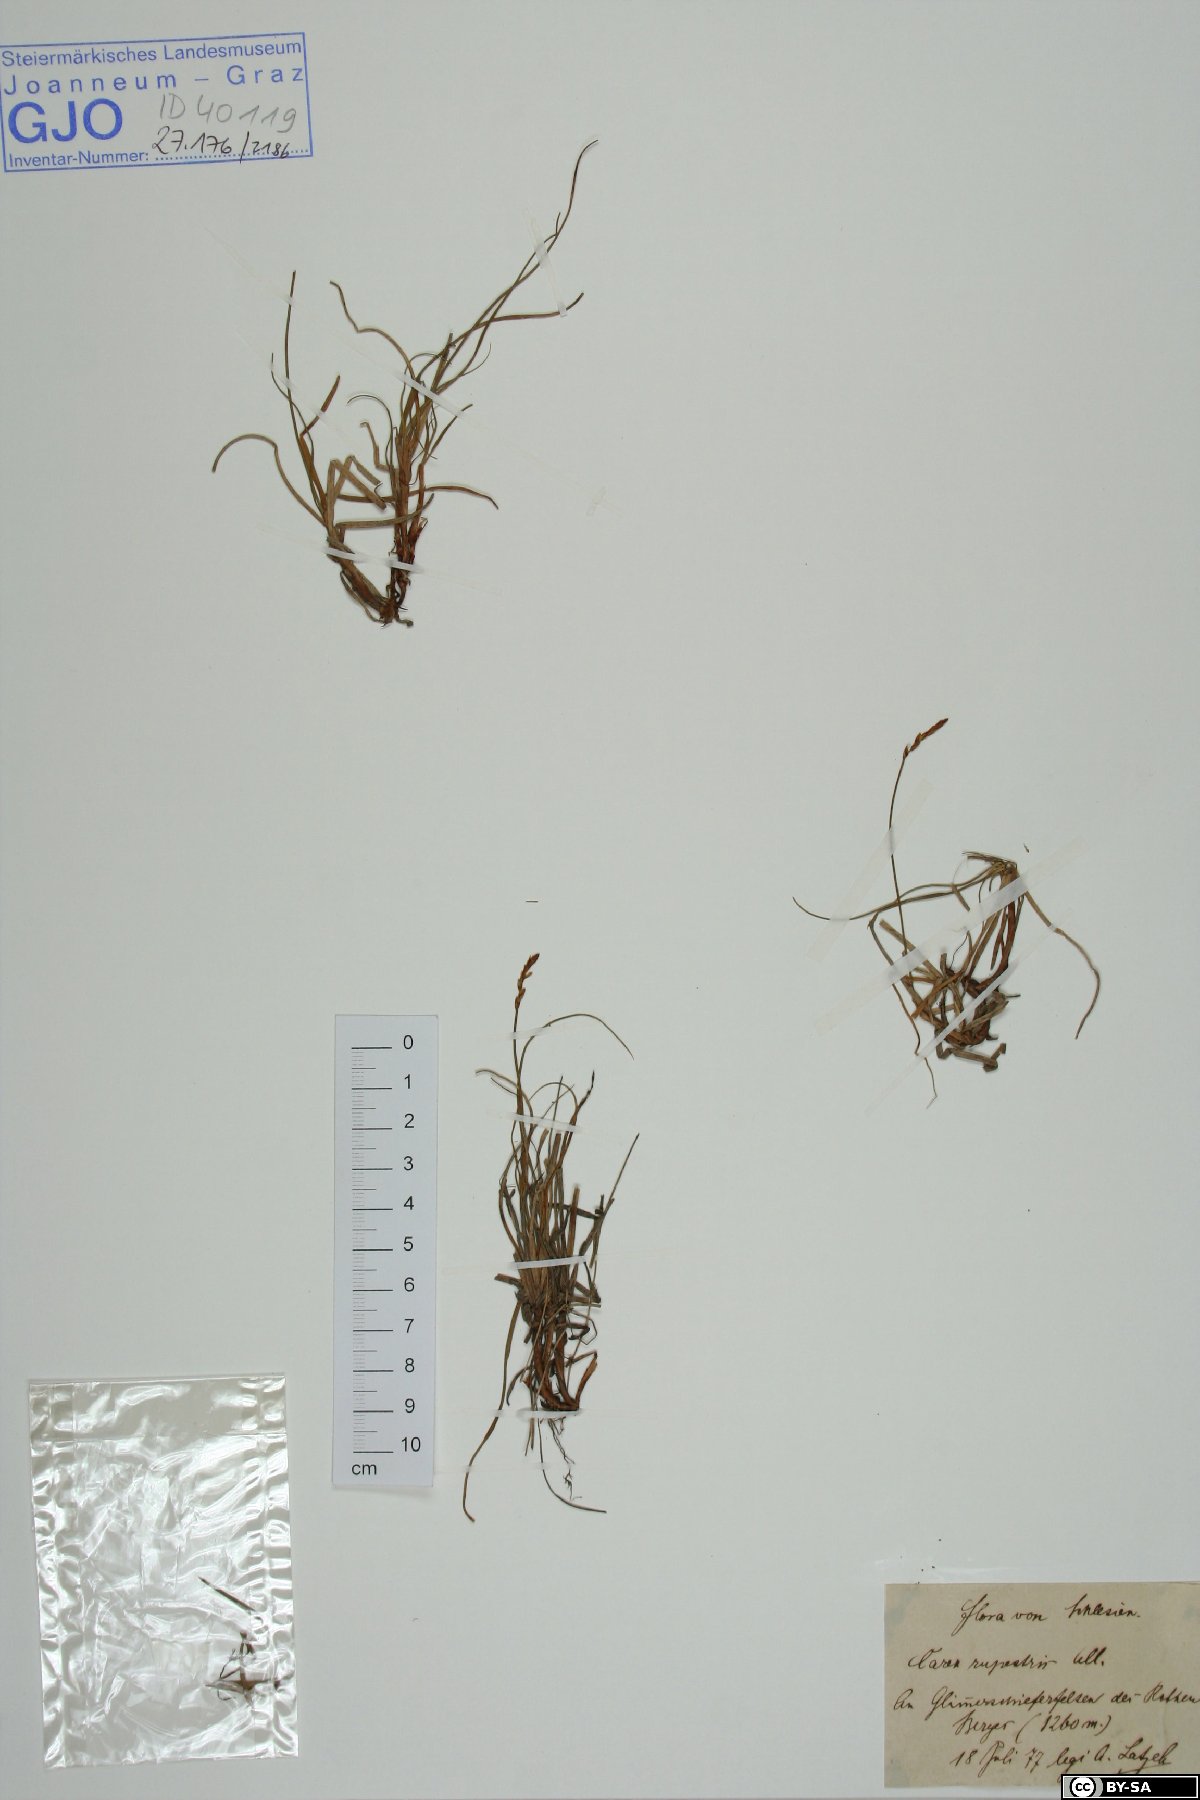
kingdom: Plantae
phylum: Tracheophyta
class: Liliopsida
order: Poales
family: Cyperaceae
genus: Carex
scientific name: Carex rupestris
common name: Rock sedge
